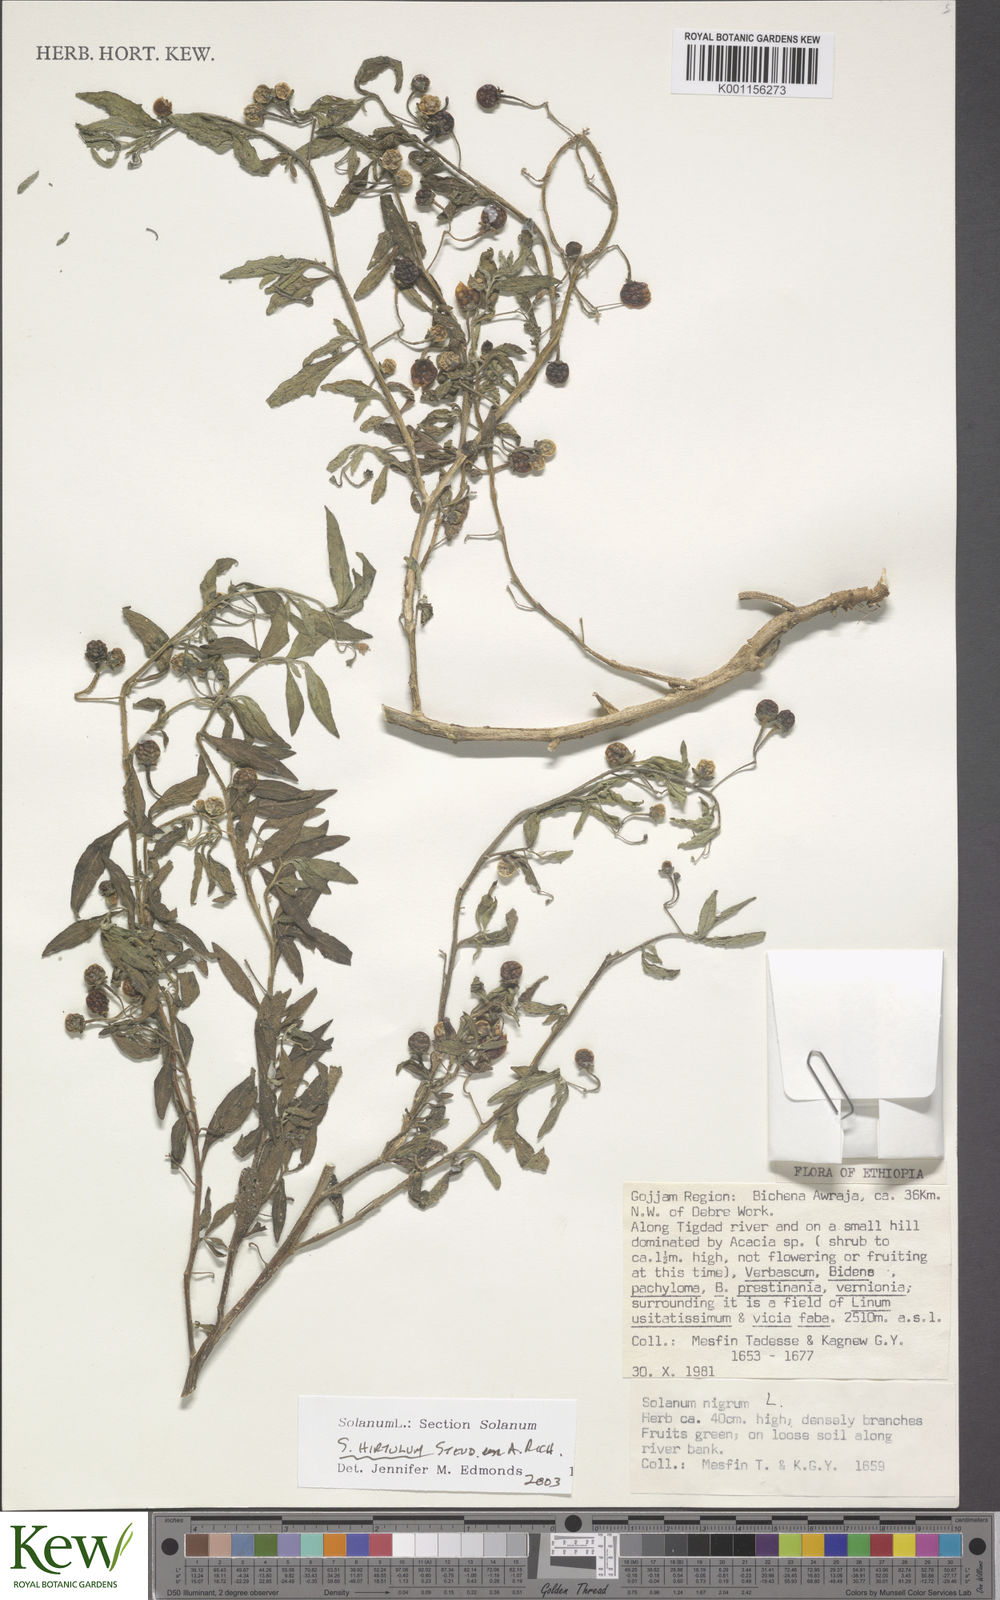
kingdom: Plantae
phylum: Tracheophyta
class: Magnoliopsida
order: Solanales
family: Solanaceae
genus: Solanum
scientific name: Solanum hirtulum
